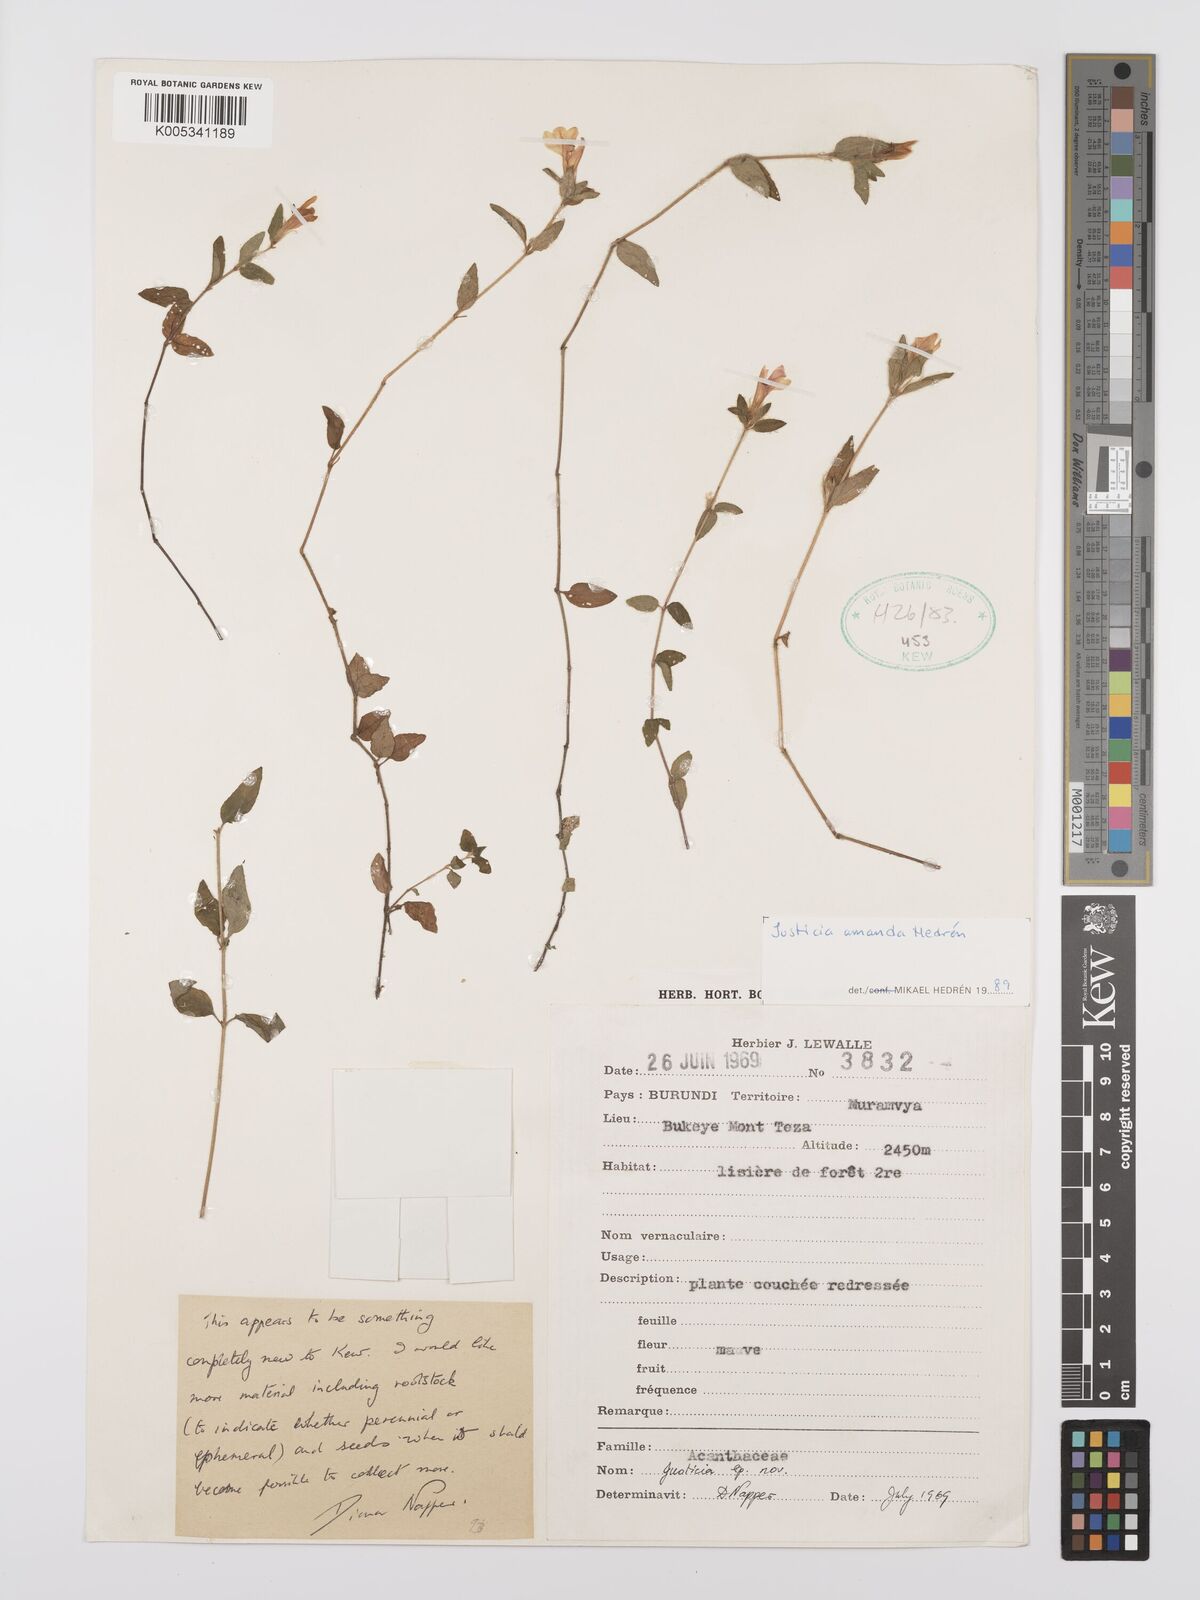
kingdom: Plantae
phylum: Tracheophyta
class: Magnoliopsida
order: Lamiales
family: Acanthaceae
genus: Justicia
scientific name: Justicia amanda
